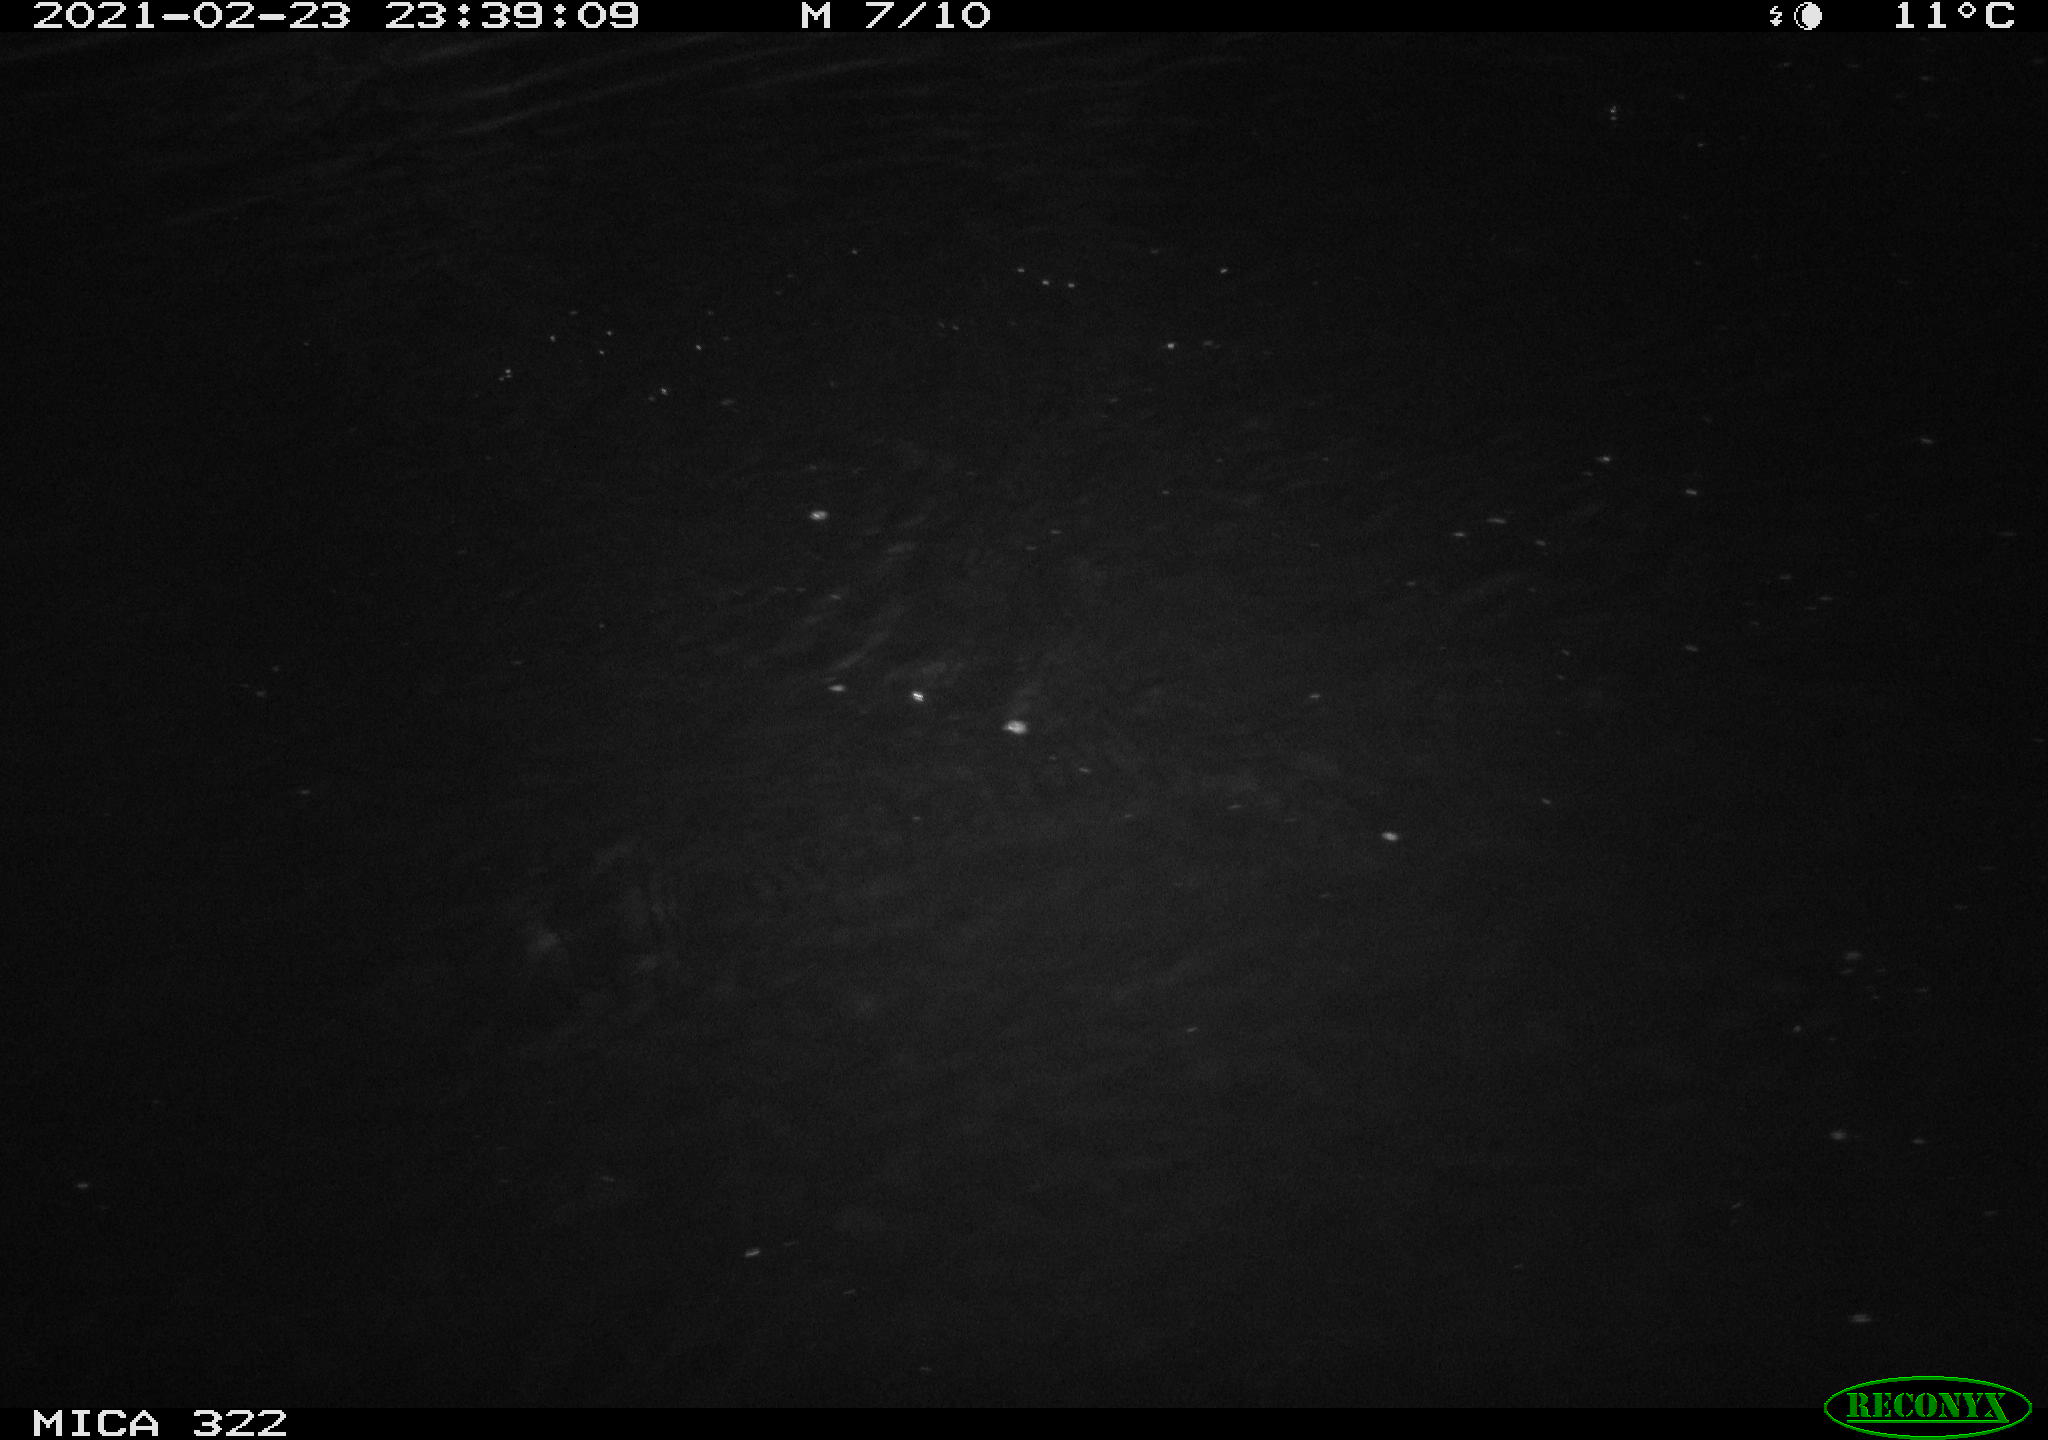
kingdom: Animalia
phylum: Chordata
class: Aves
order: Anseriformes
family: Anatidae
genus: Anas
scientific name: Anas platyrhynchos
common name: Mallard
